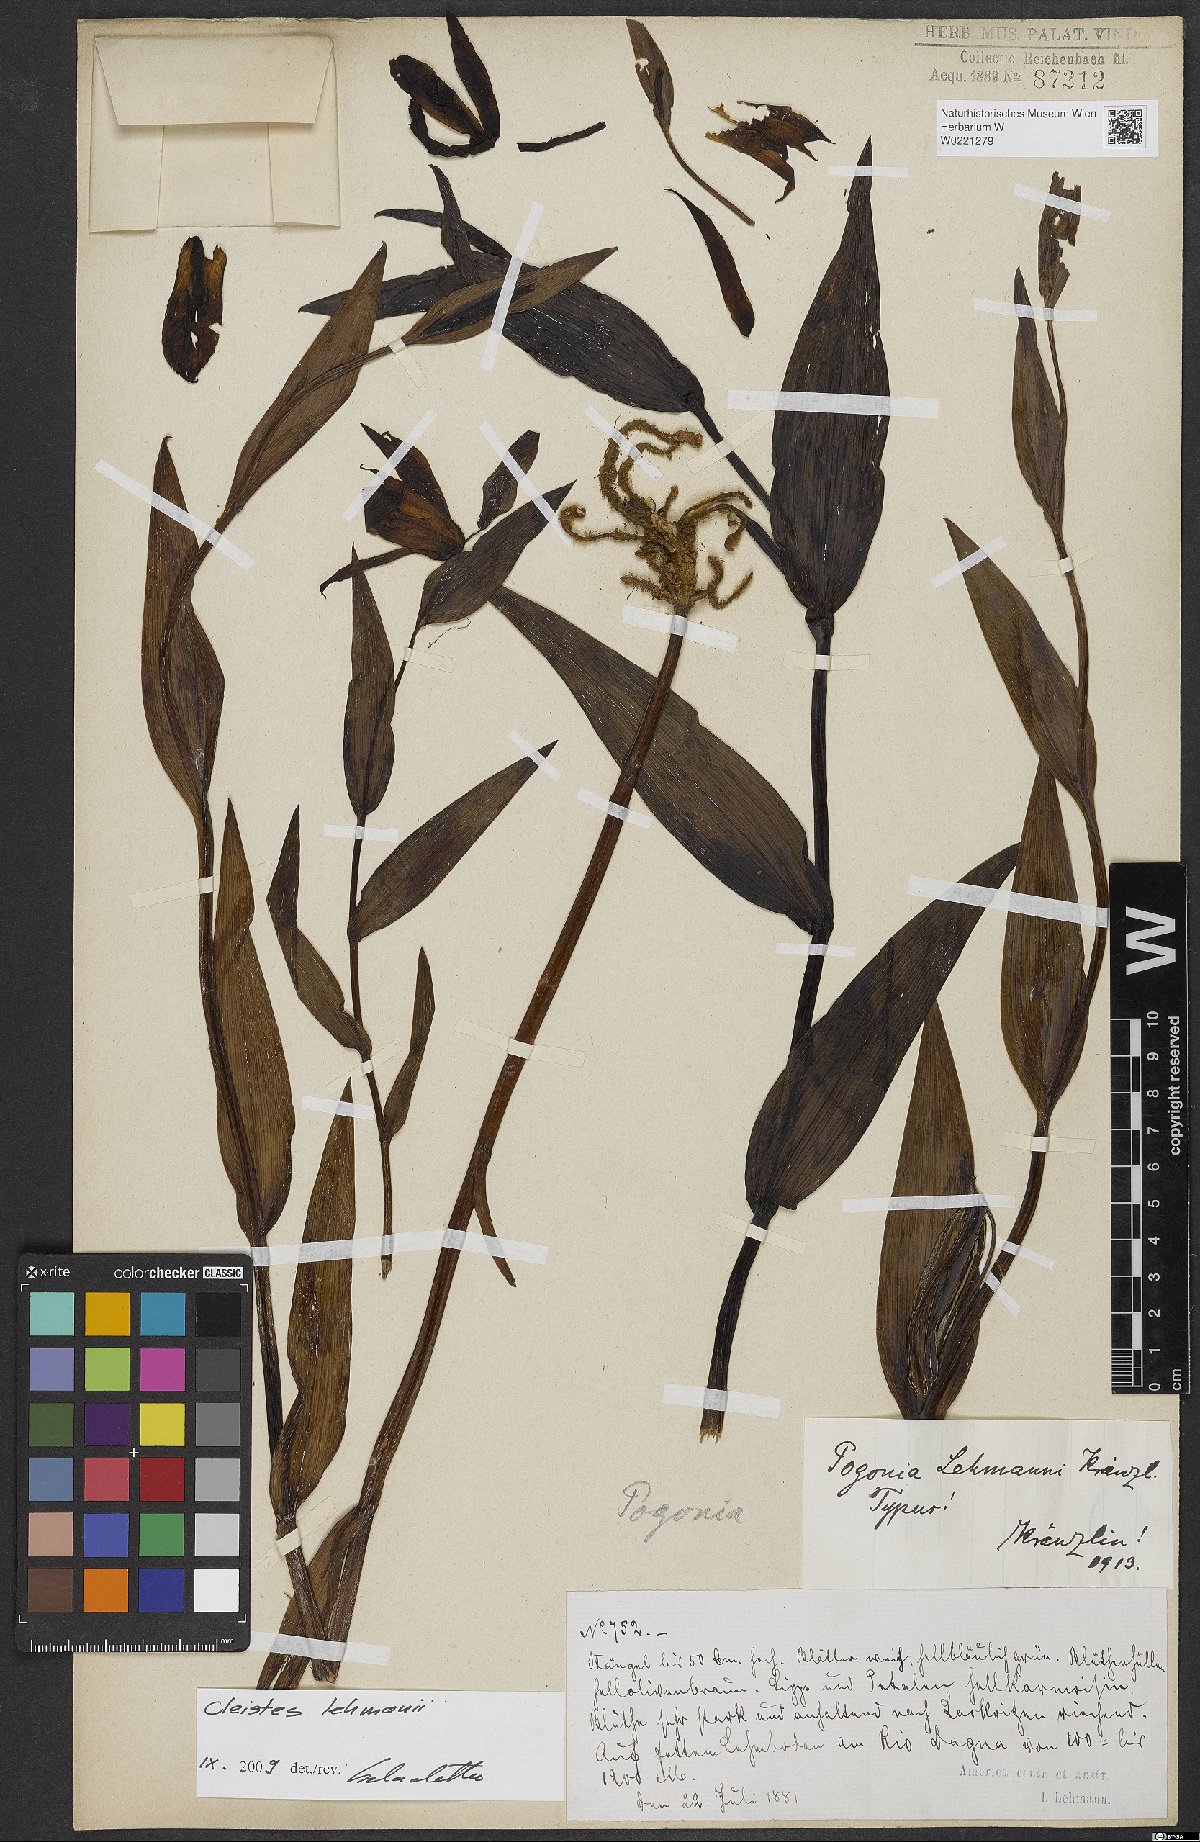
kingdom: Plantae
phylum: Tracheophyta
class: Liliopsida
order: Asparagales
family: Orchidaceae
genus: Cleistes
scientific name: Cleistes lehmannii
